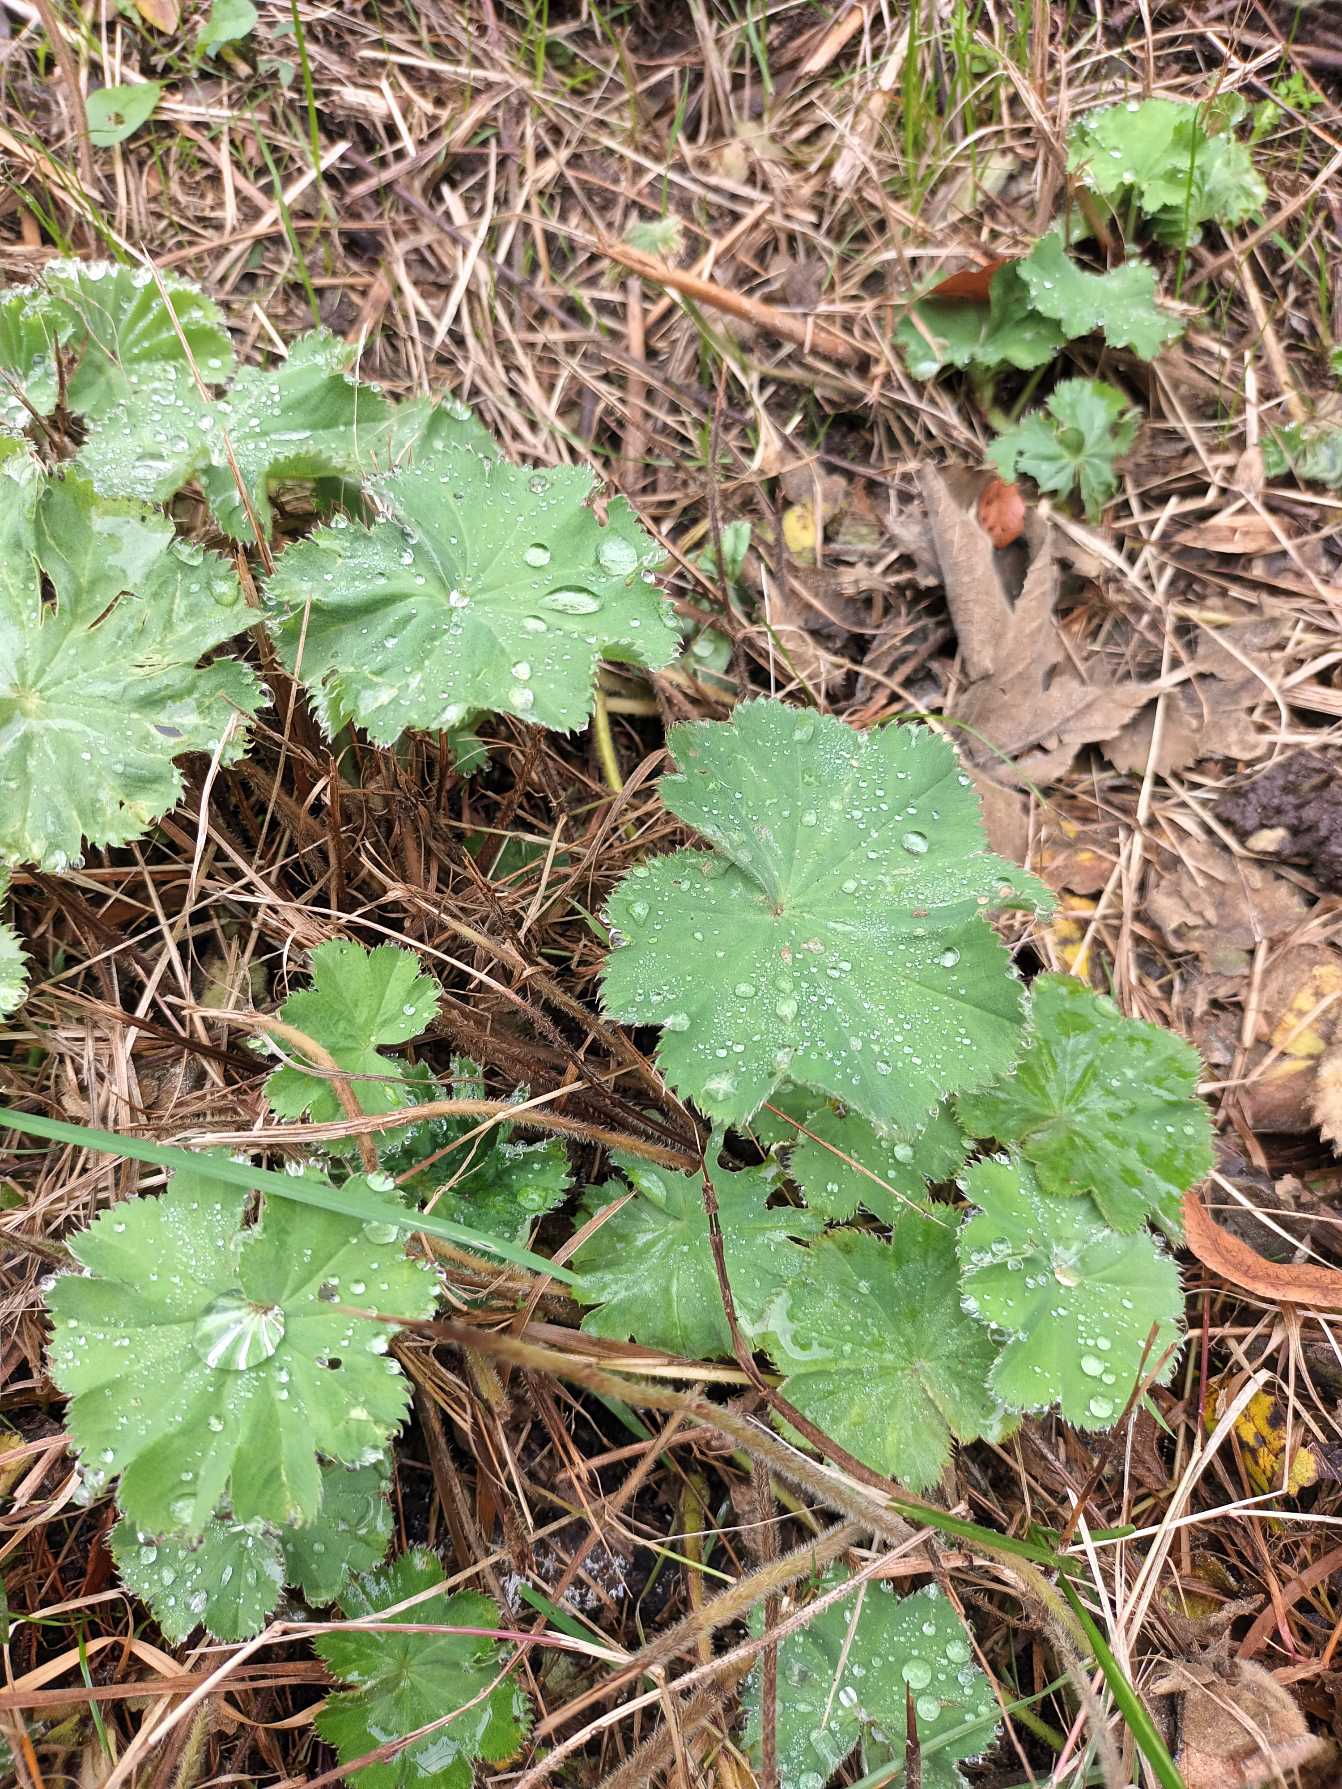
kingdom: Plantae
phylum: Tracheophyta
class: Magnoliopsida
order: Rosales
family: Rosaceae
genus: Alchemilla
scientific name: Alchemilla mollis
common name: Lådden løvefod
